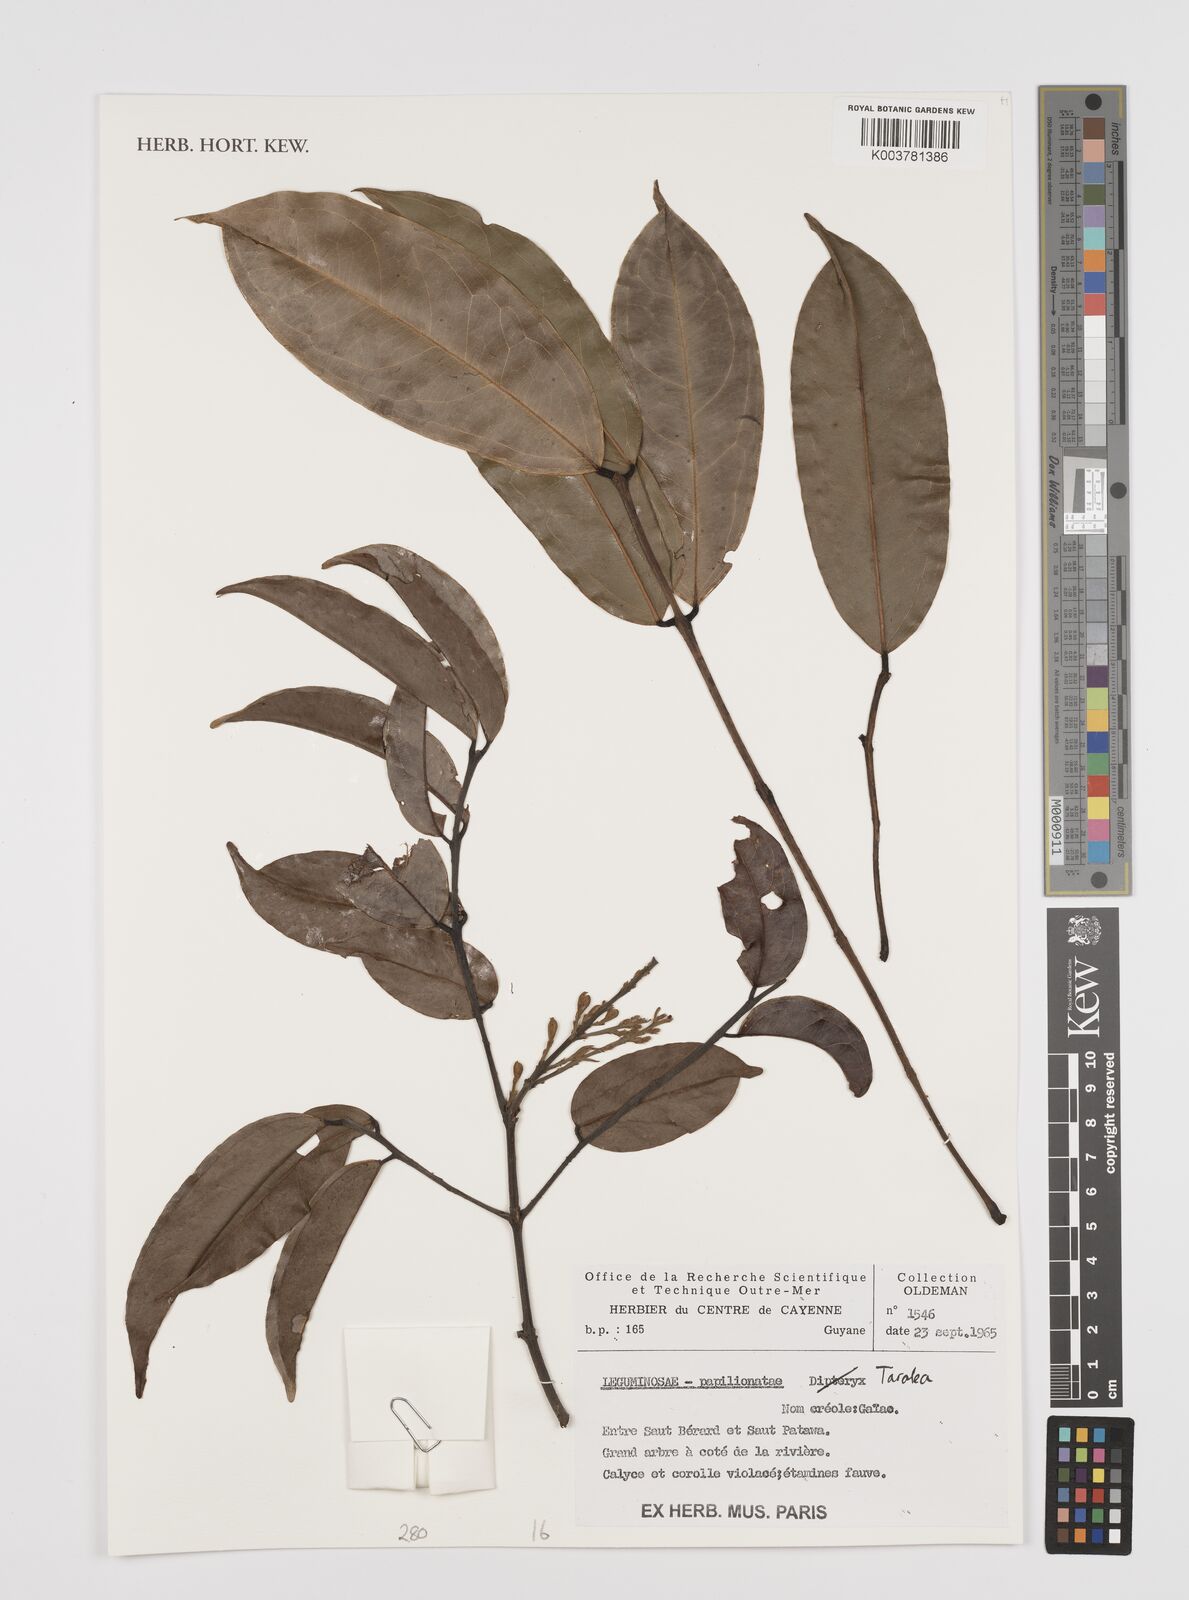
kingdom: Plantae
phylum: Tracheophyta
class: Magnoliopsida
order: Fabales
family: Fabaceae
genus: Taralea
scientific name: Taralea
